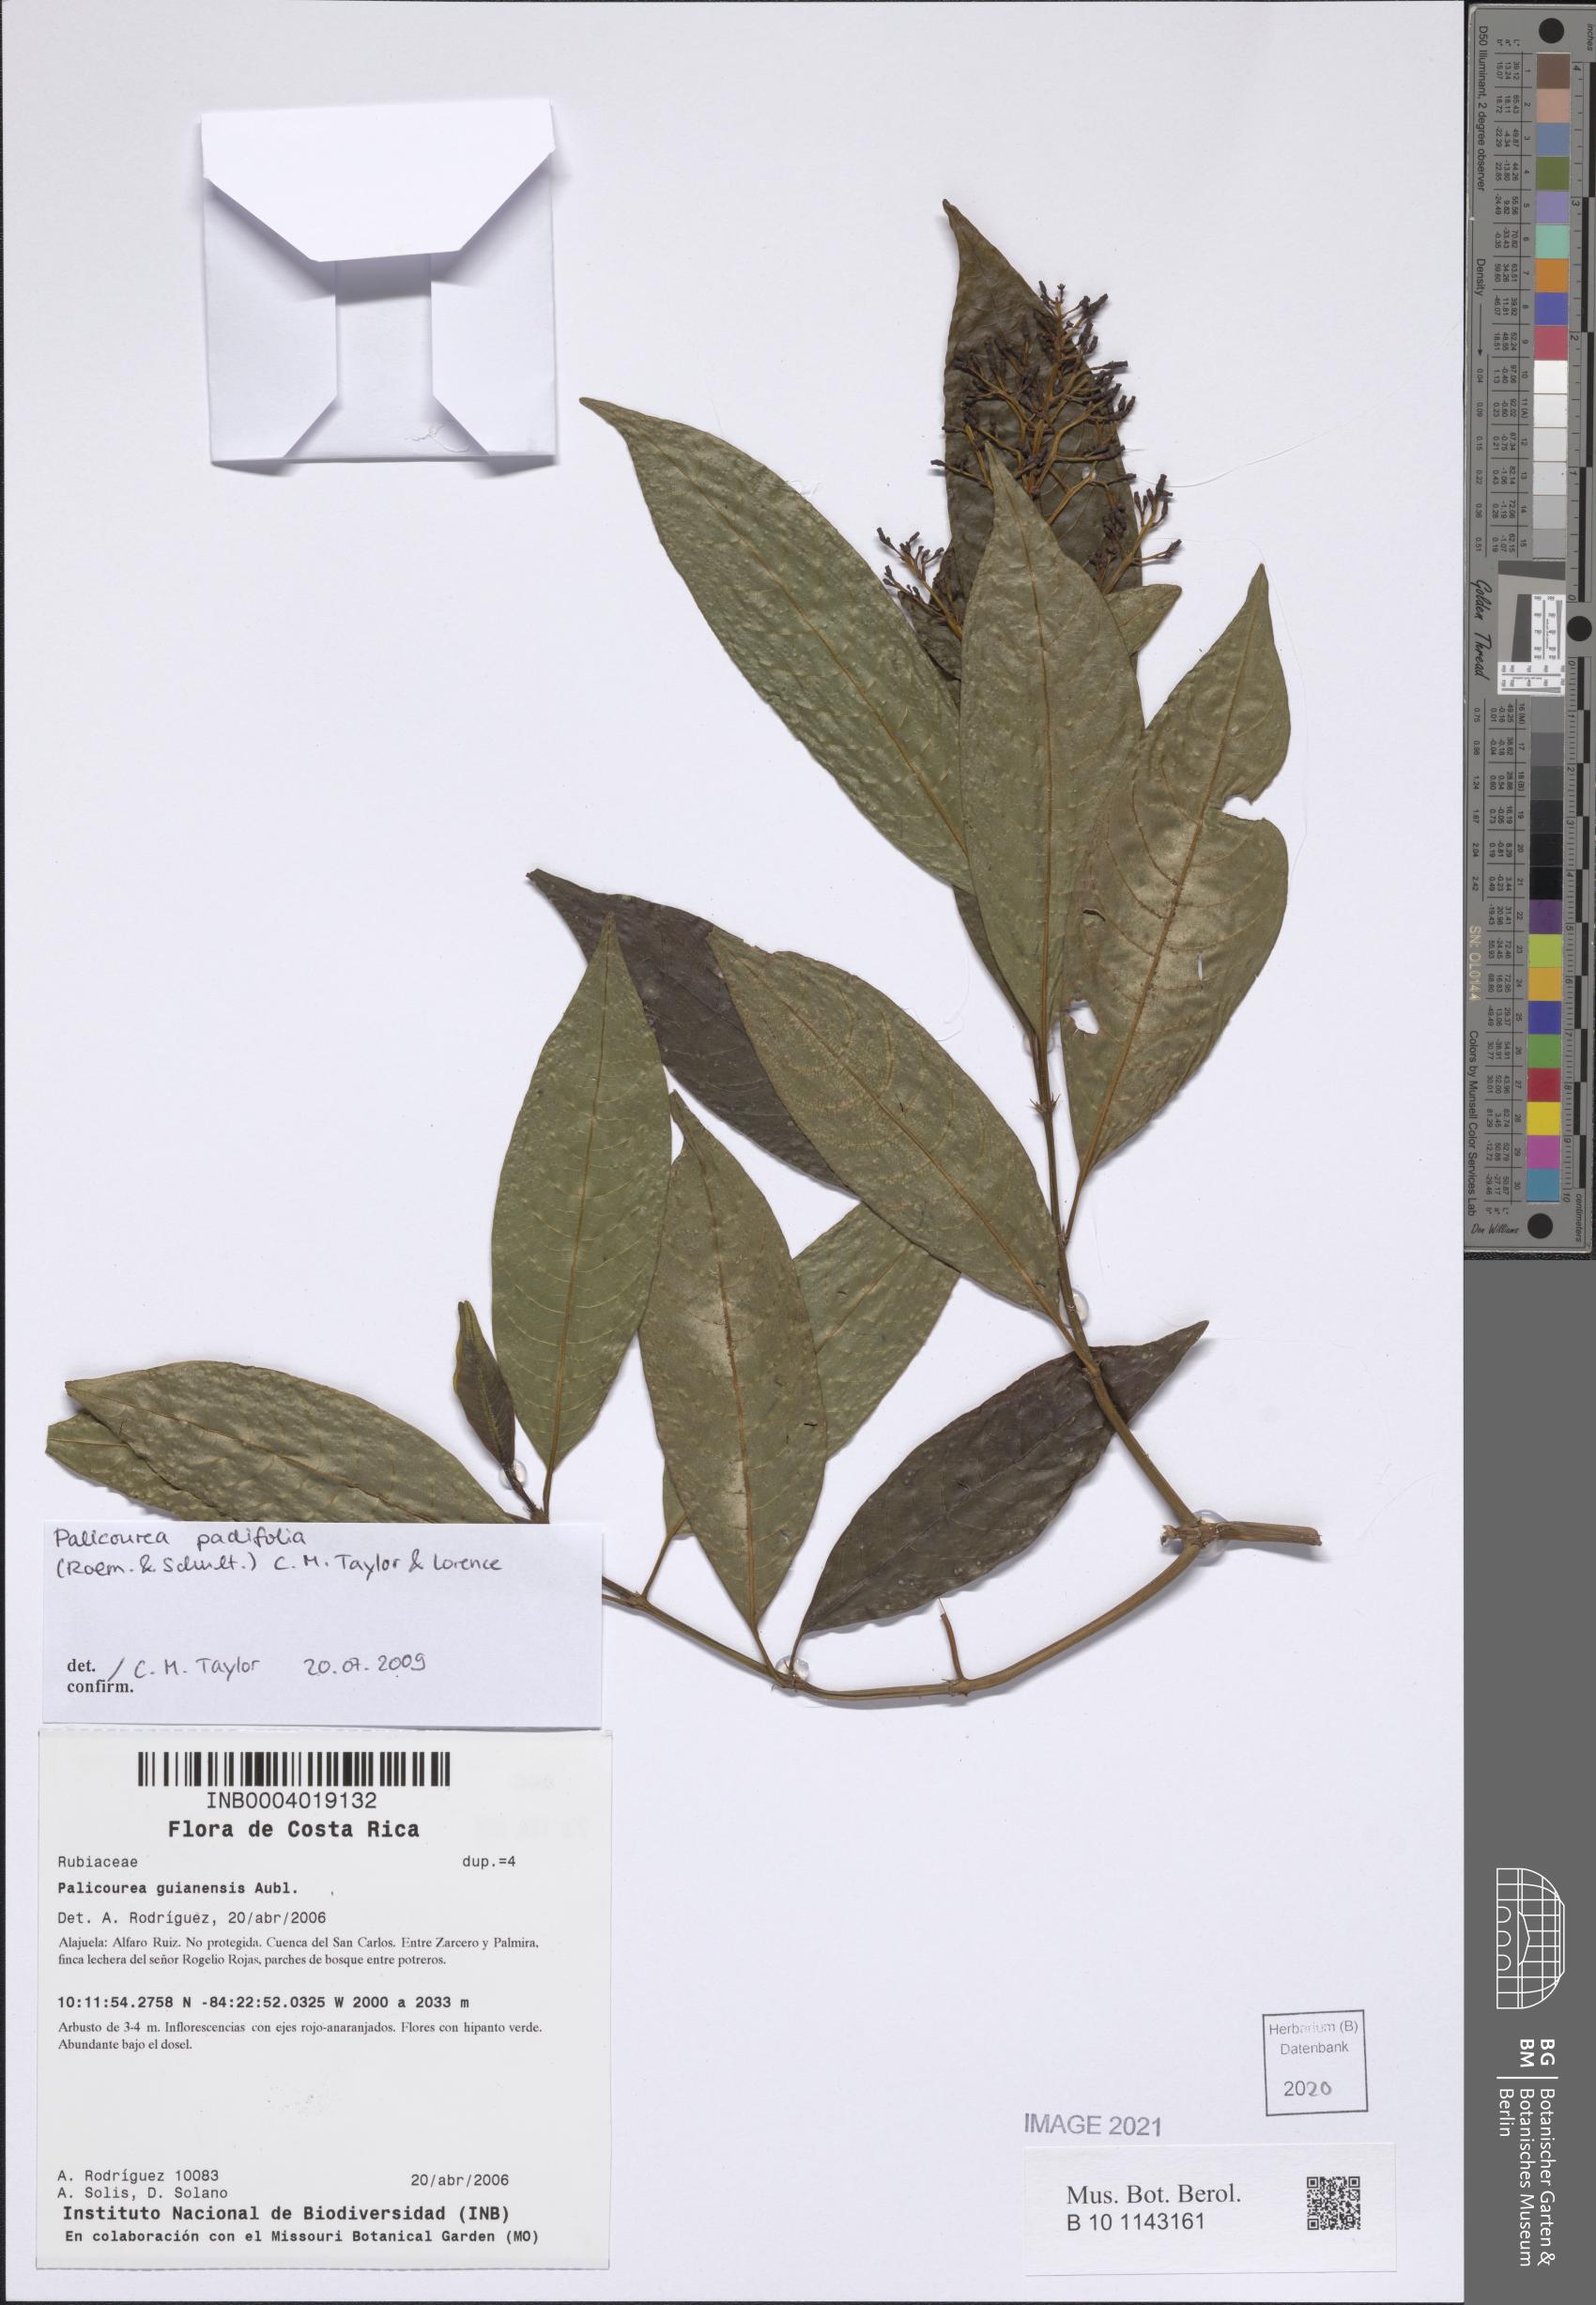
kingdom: Plantae
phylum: Tracheophyta
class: Magnoliopsida
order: Gentianales
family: Rubiaceae
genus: Palicourea
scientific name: Palicourea padifolia
